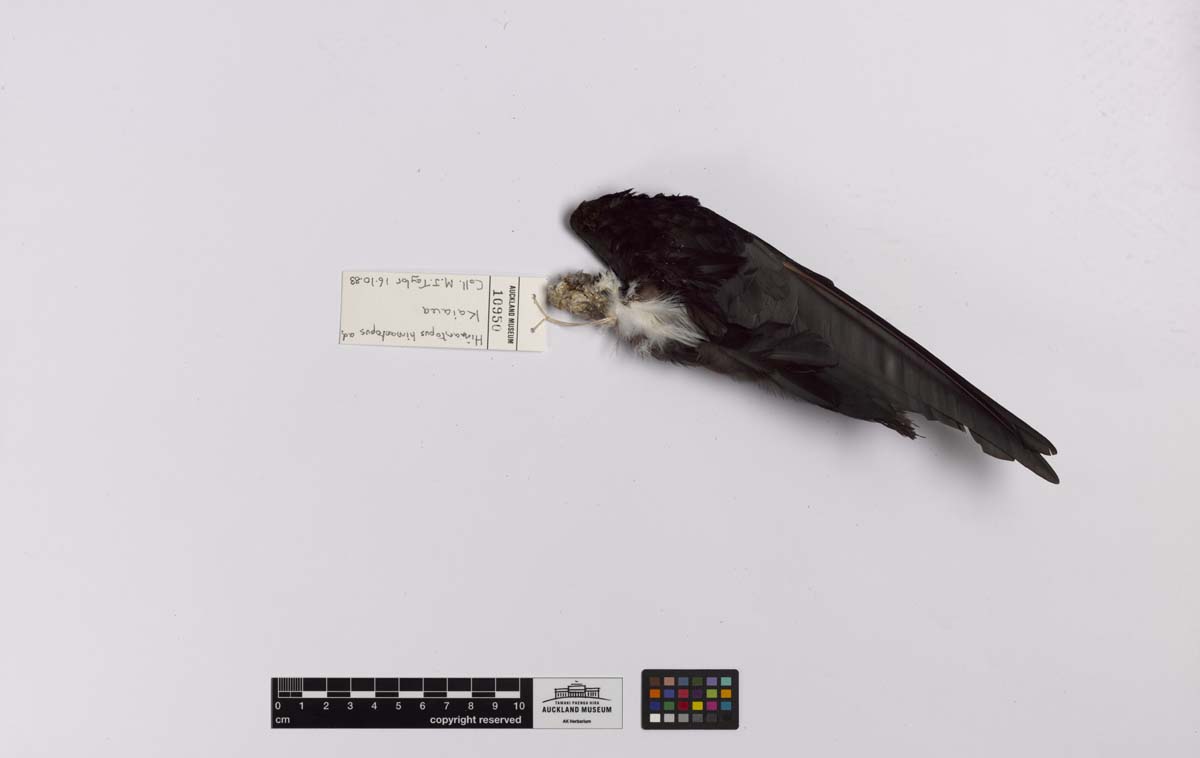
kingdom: Animalia
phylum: Chordata
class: Aves
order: Charadriiformes
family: Recurvirostridae
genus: Himantopus
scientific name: Himantopus himantopus
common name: Black-winged stilt
